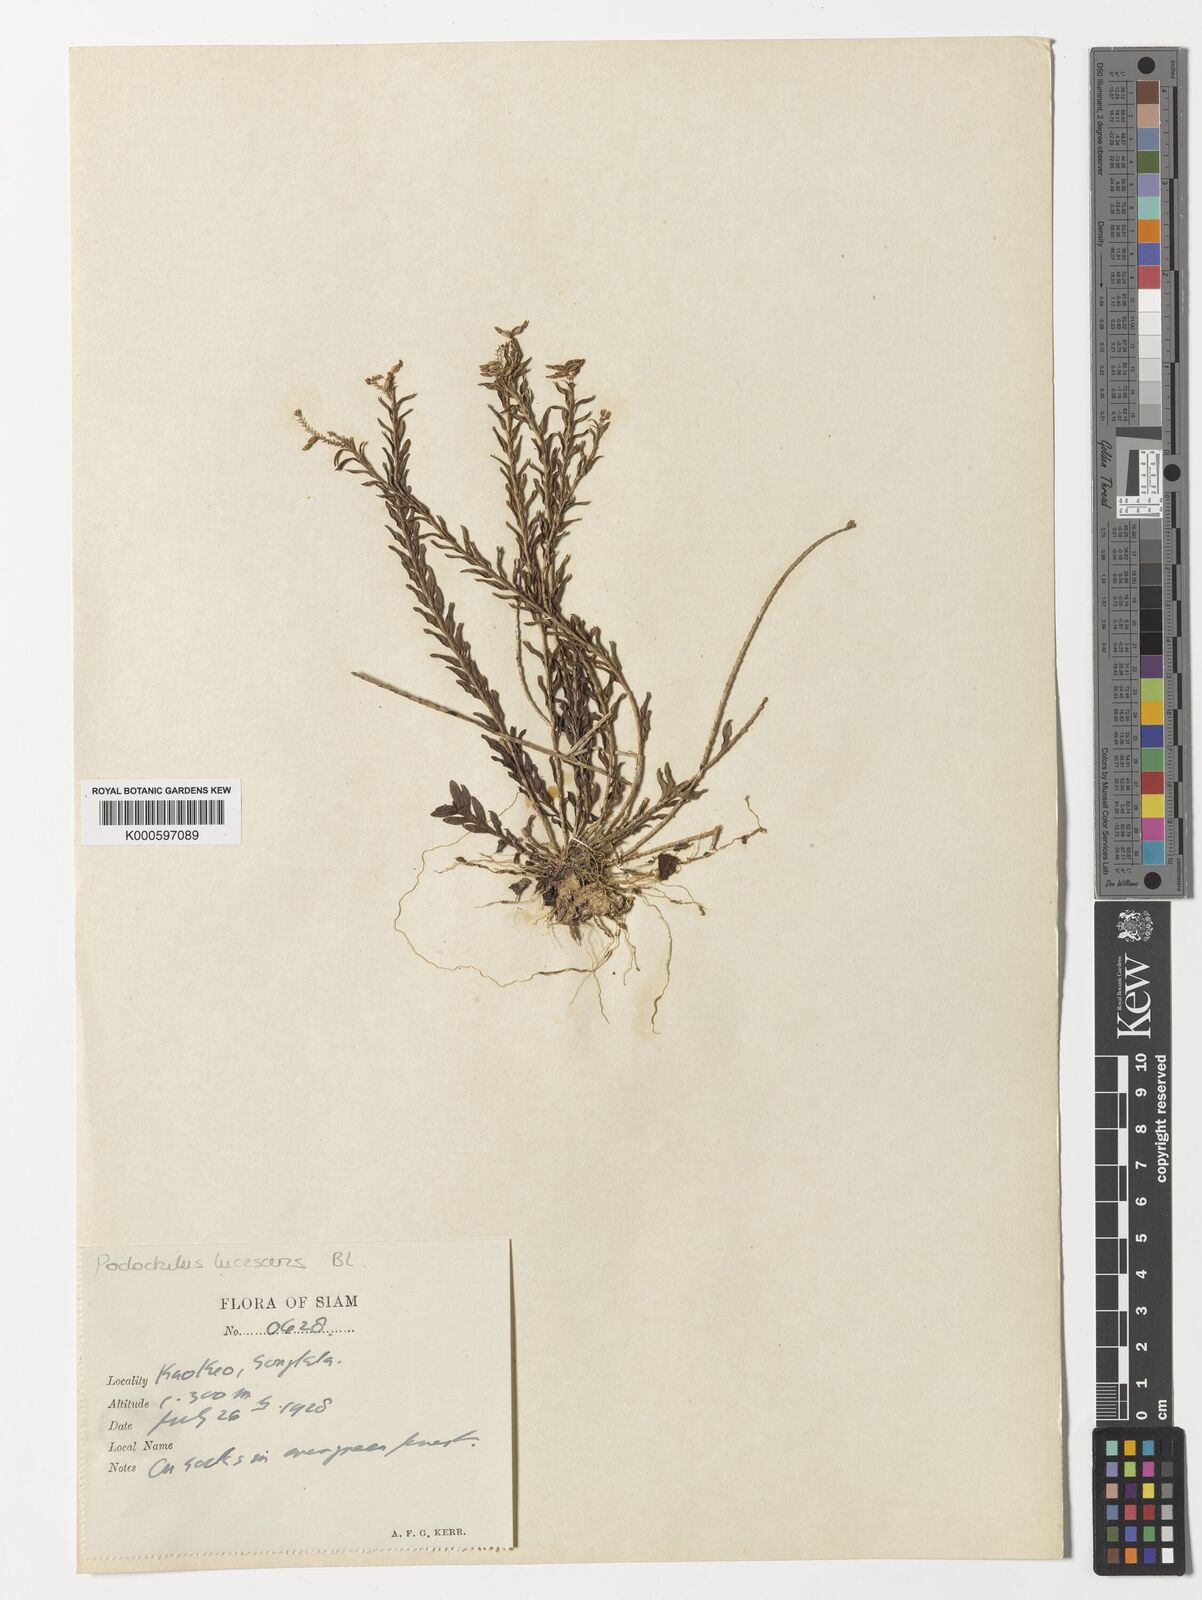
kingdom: Plantae
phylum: Tracheophyta
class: Liliopsida
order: Asparagales
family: Orchidaceae
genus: Podochilus
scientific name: Podochilus lucescens
